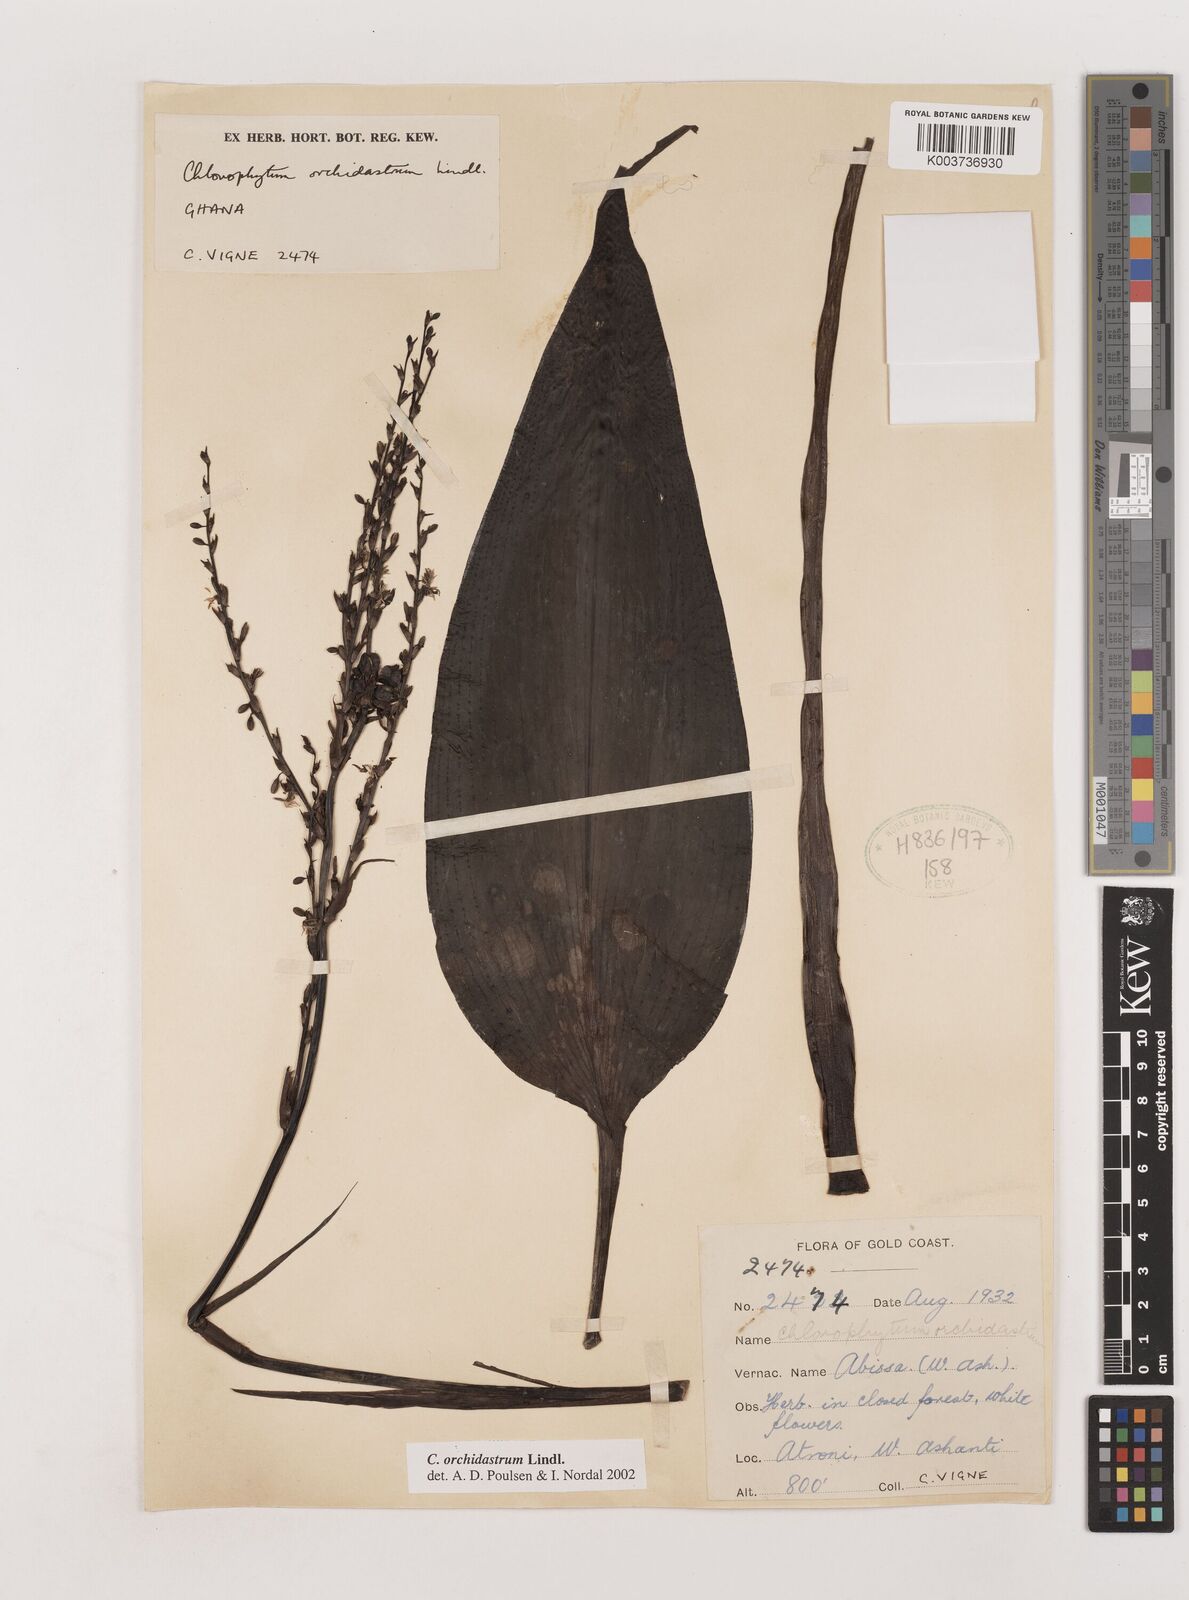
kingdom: Plantae
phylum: Tracheophyta
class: Liliopsida
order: Asparagales
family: Asparagaceae
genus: Chlorophytum
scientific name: Chlorophytum orchidastrum
